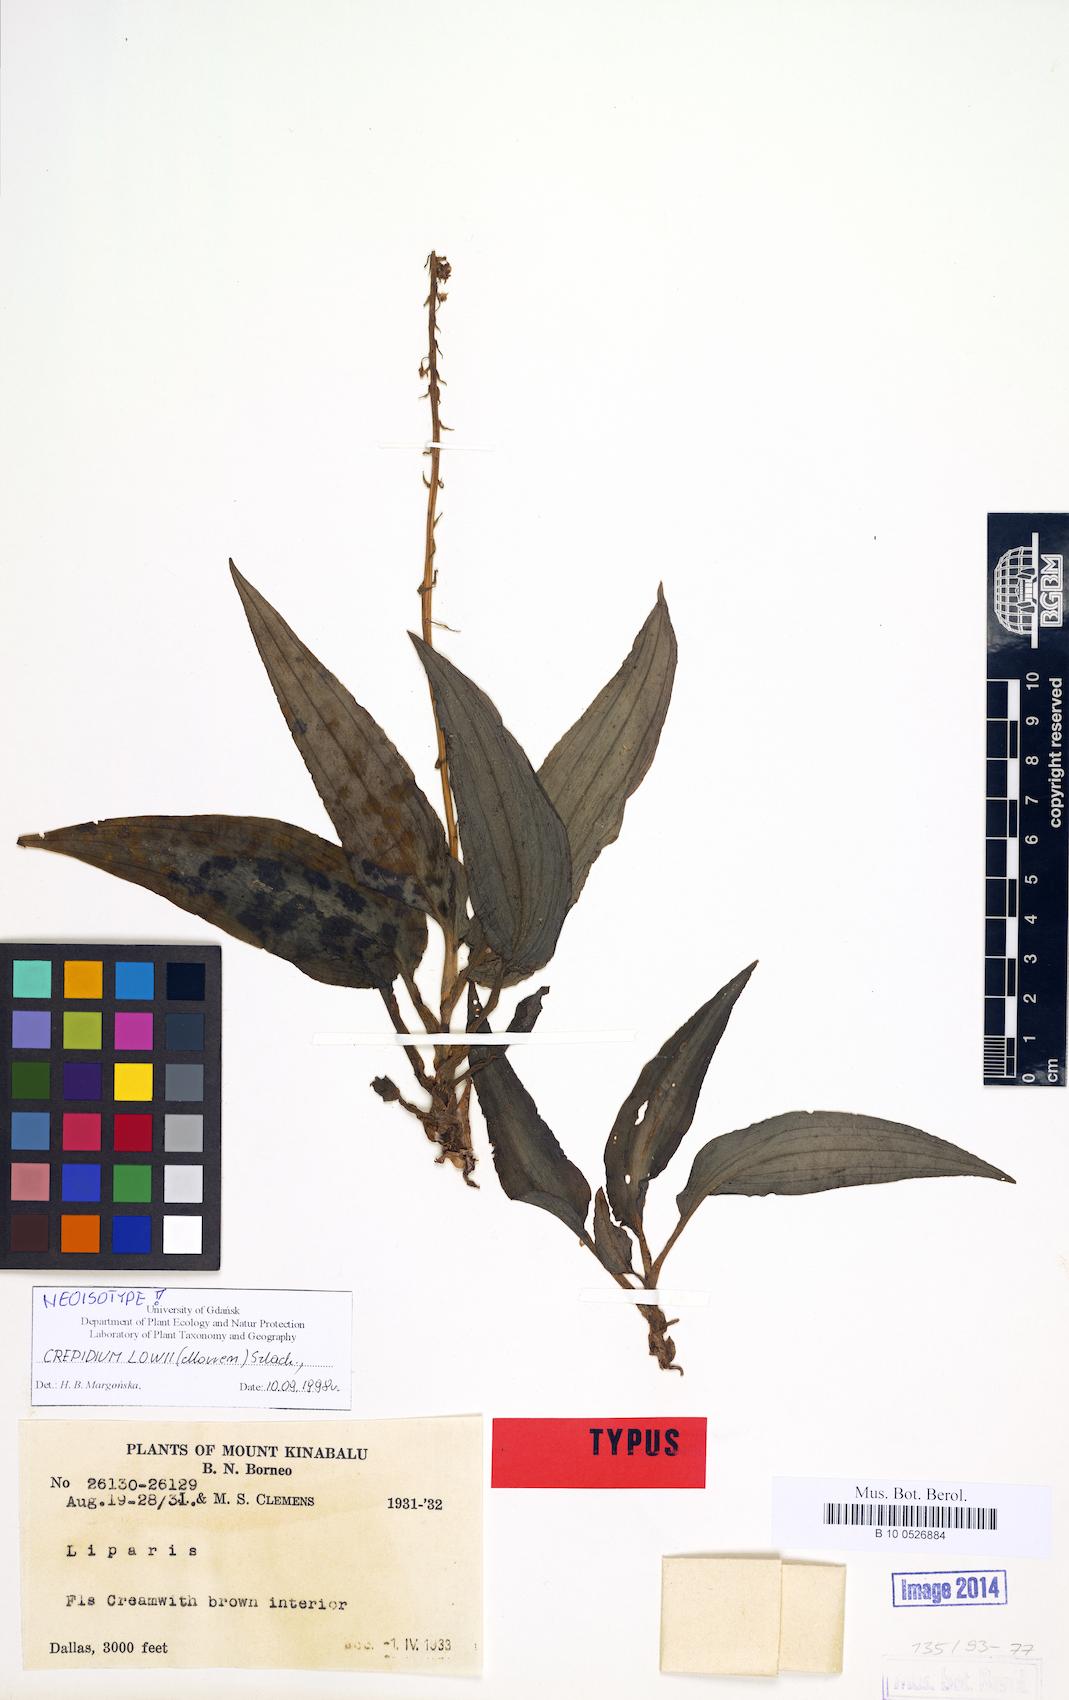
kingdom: Plantae
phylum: Tracheophyta
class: Liliopsida
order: Asparagales
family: Orchidaceae
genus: Crepidium
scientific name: Crepidium lowii
